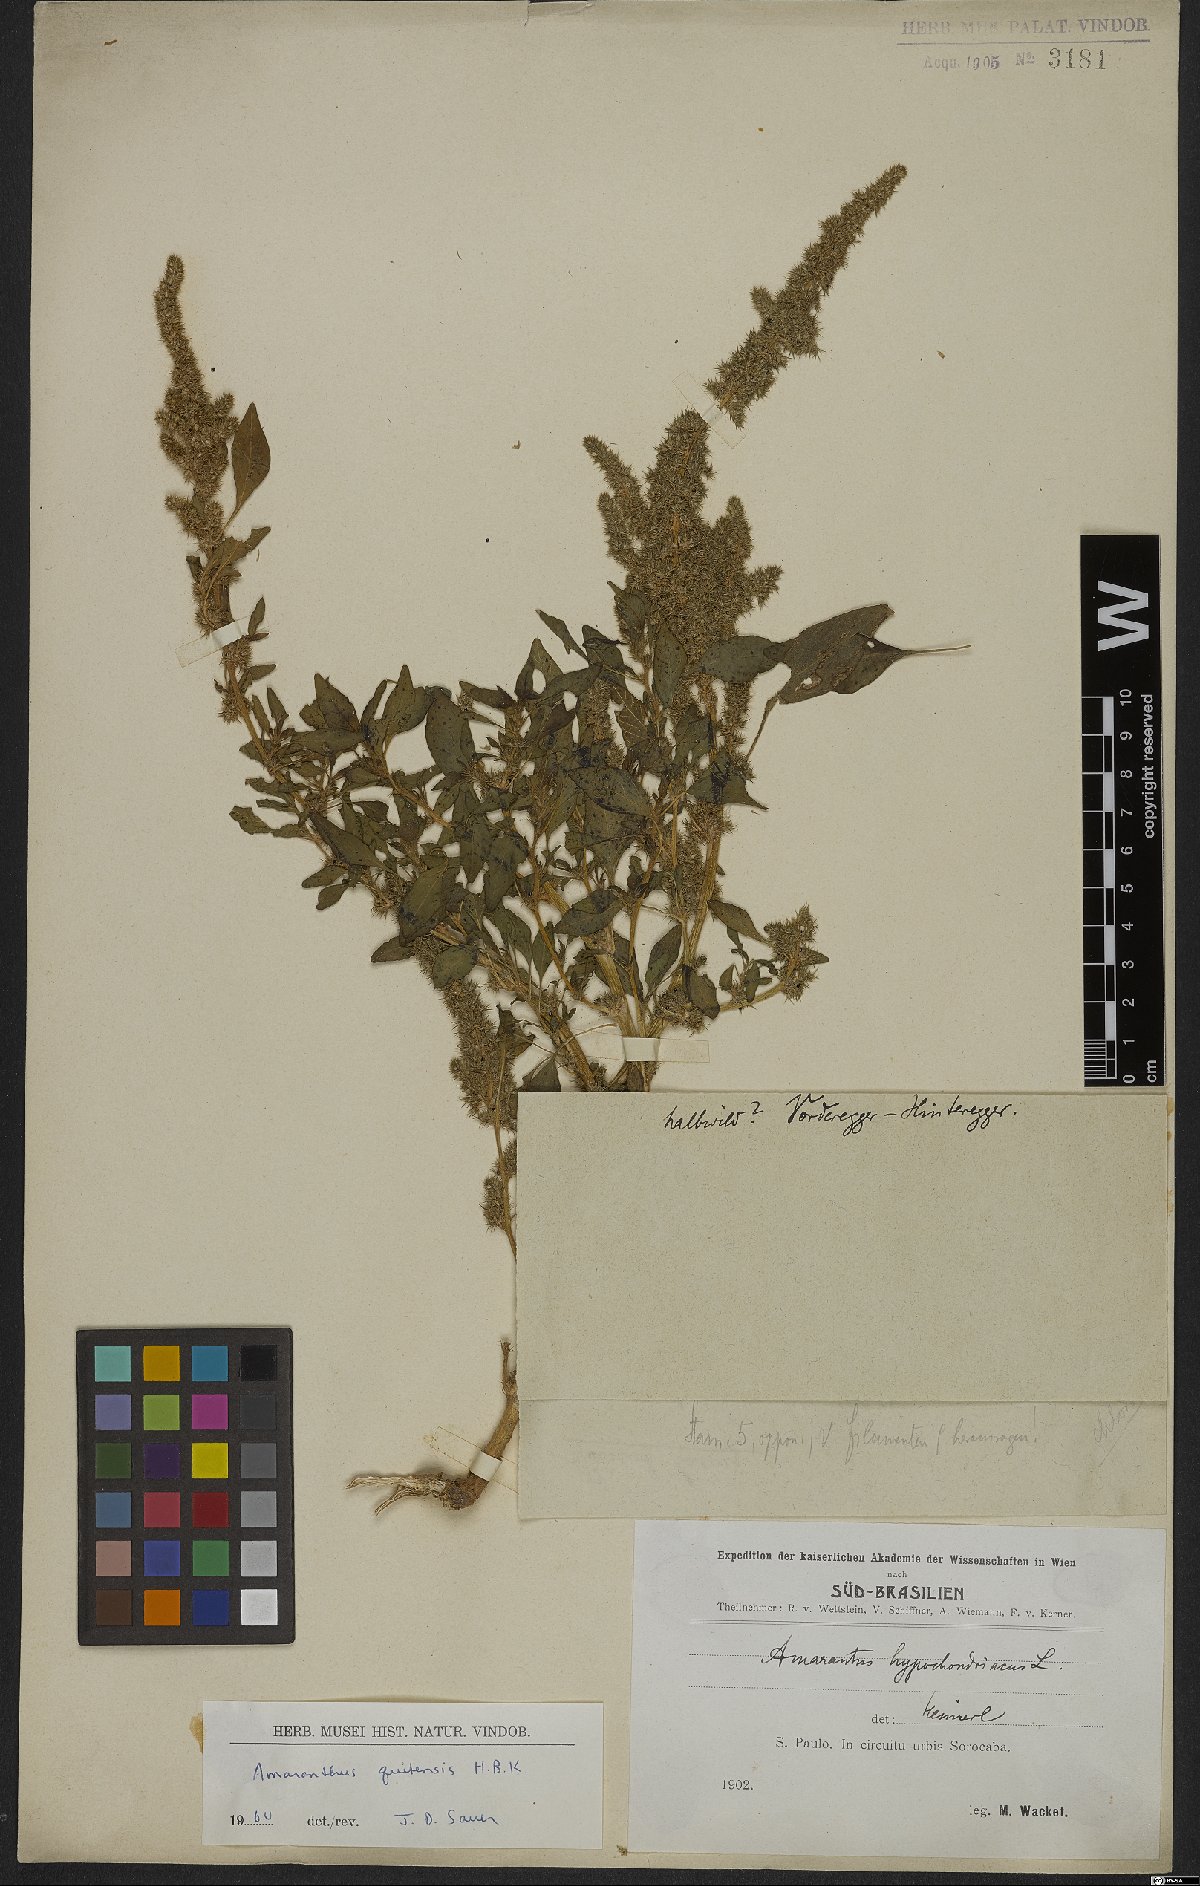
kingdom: Plantae
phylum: Tracheophyta
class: Magnoliopsida
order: Caryophyllales
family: Amaranthaceae
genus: Amaranthus
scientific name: Amaranthus hybridus
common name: Green amaranth
